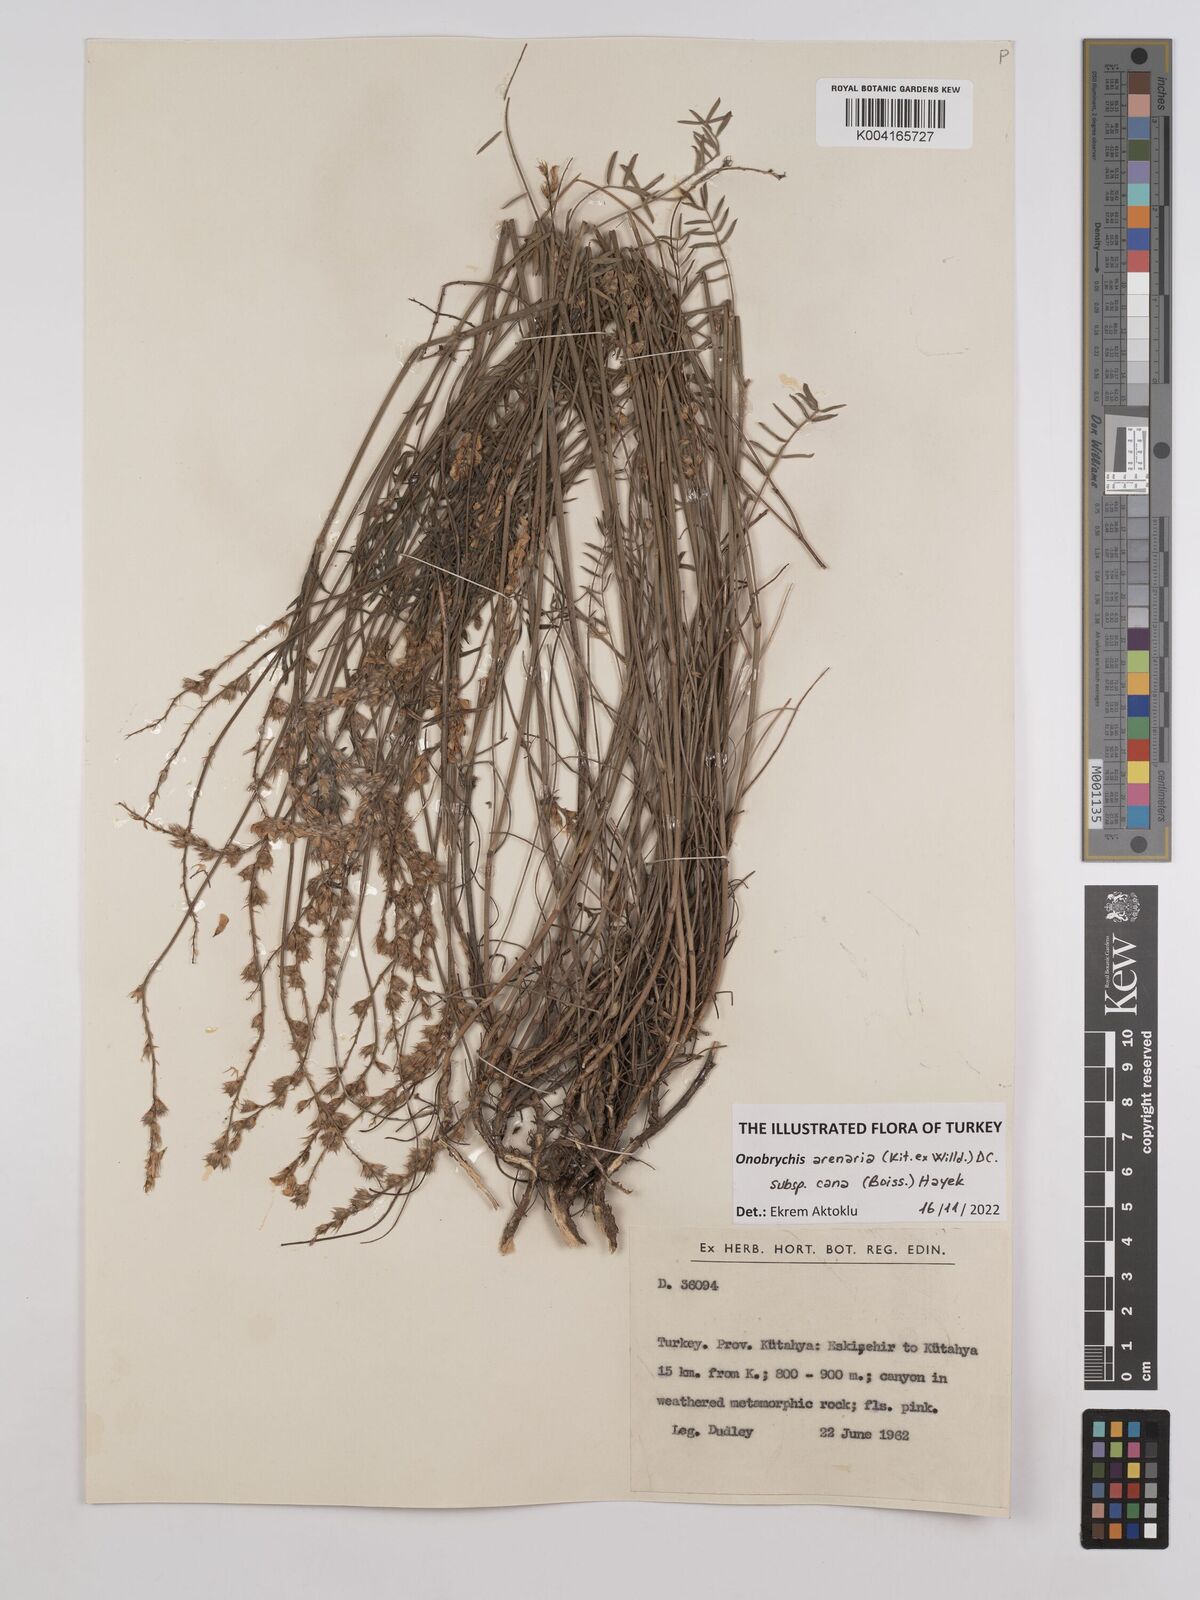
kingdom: Plantae
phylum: Tracheophyta
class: Magnoliopsida
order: Fabales
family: Fabaceae
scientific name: Fabaceae
